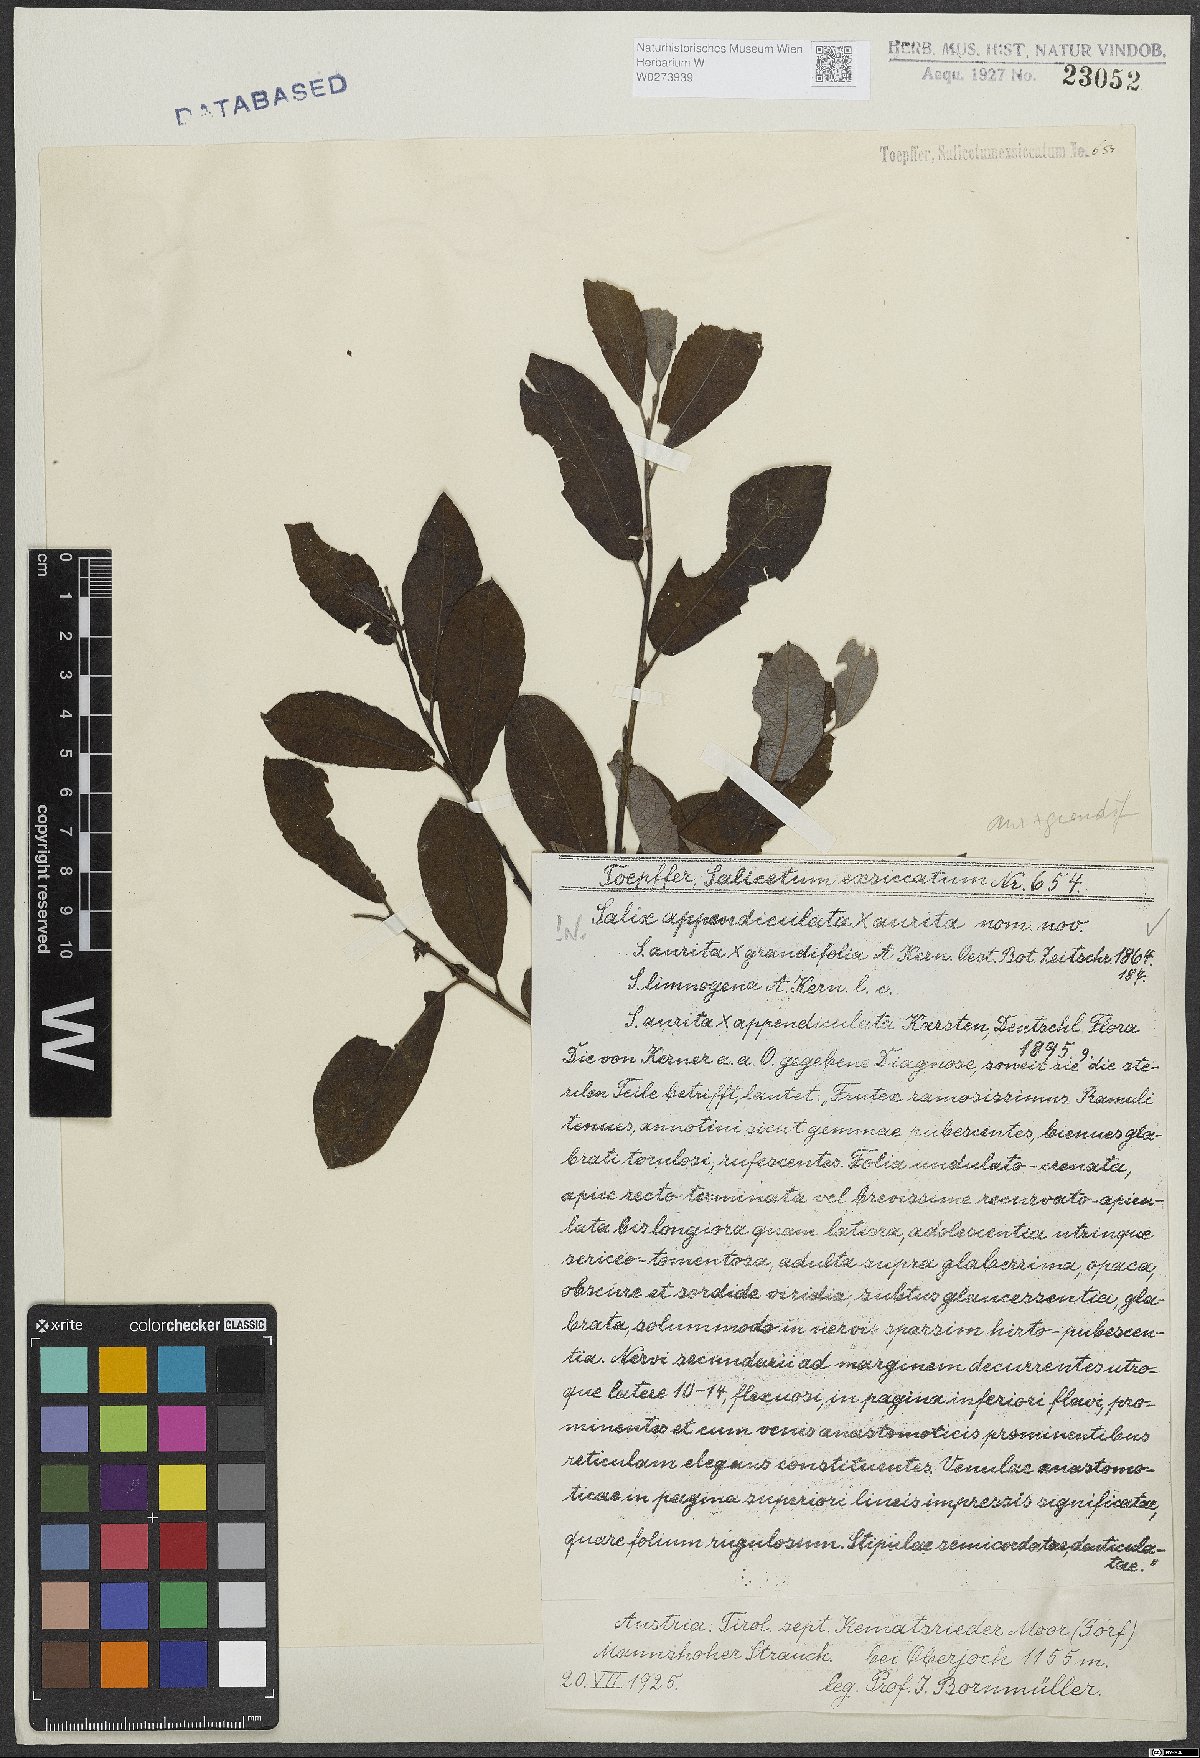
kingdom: Plantae
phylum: Tracheophyta
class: Magnoliopsida
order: Malpighiales
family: Salicaceae
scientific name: Salicaceae
